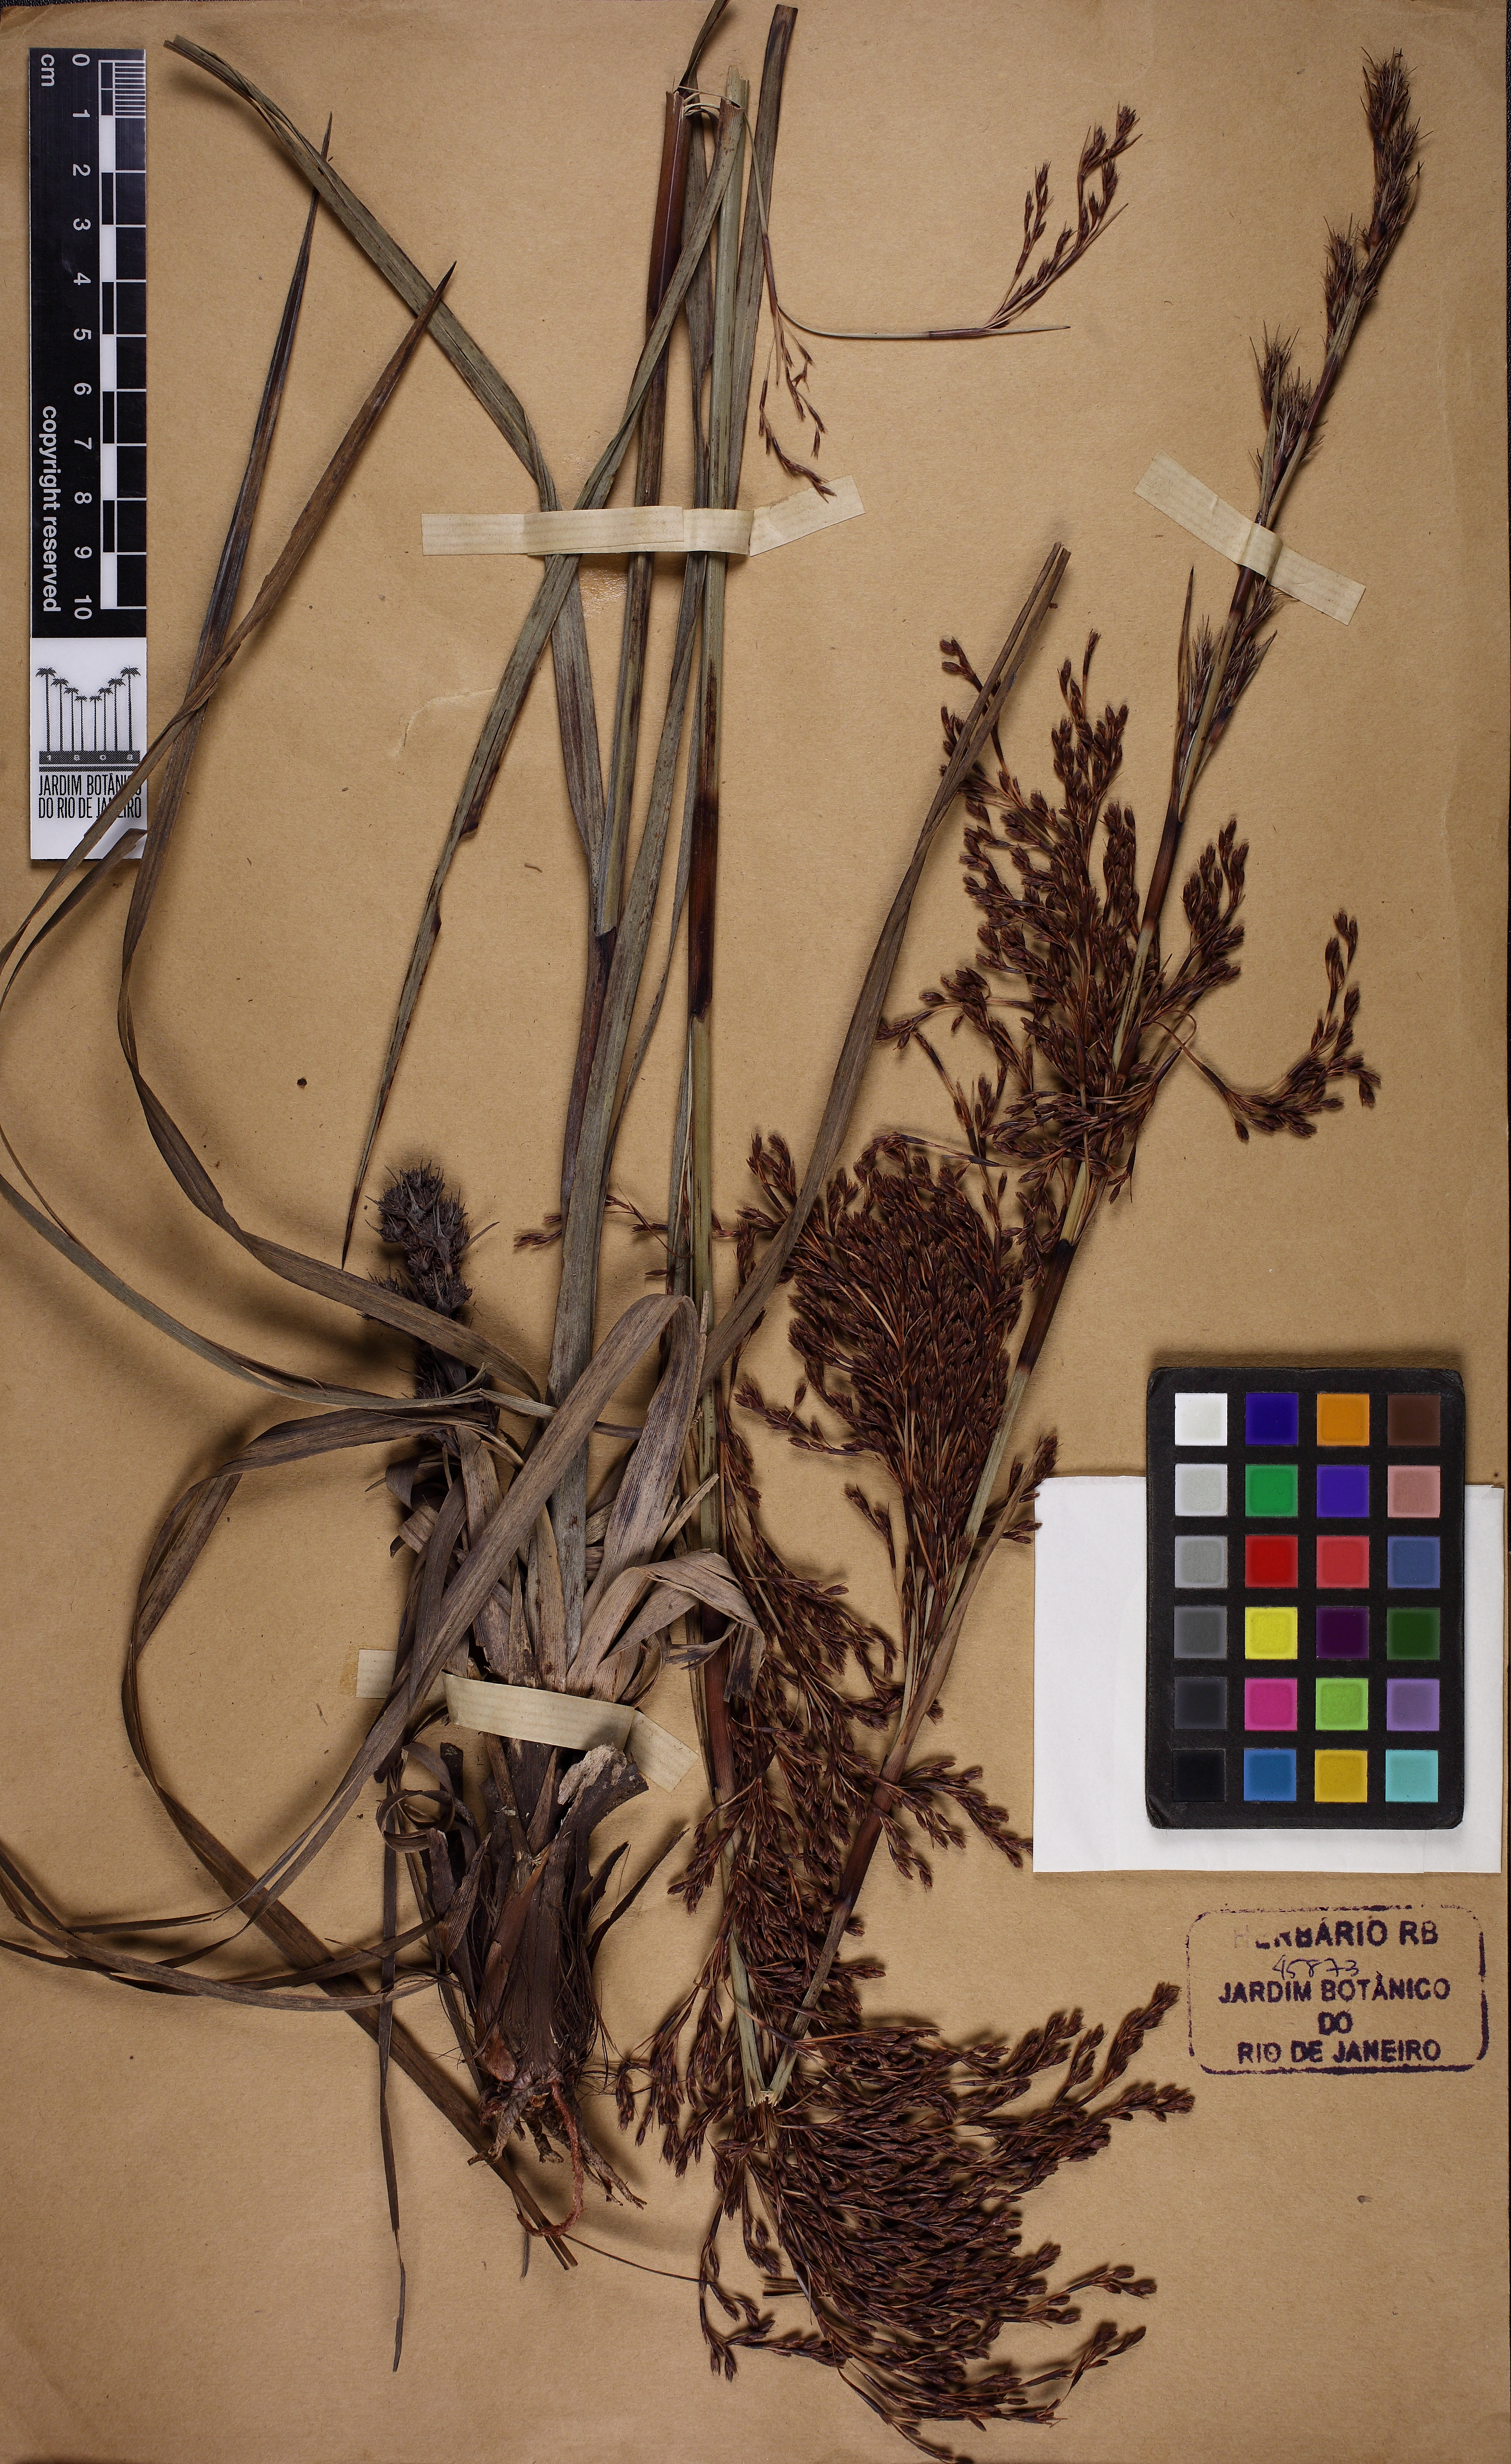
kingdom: Plantae
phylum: Tracheophyta
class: Liliopsida
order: Poales
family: Cyperaceae
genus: Lagenocarpus
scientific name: Lagenocarpus rigidus
